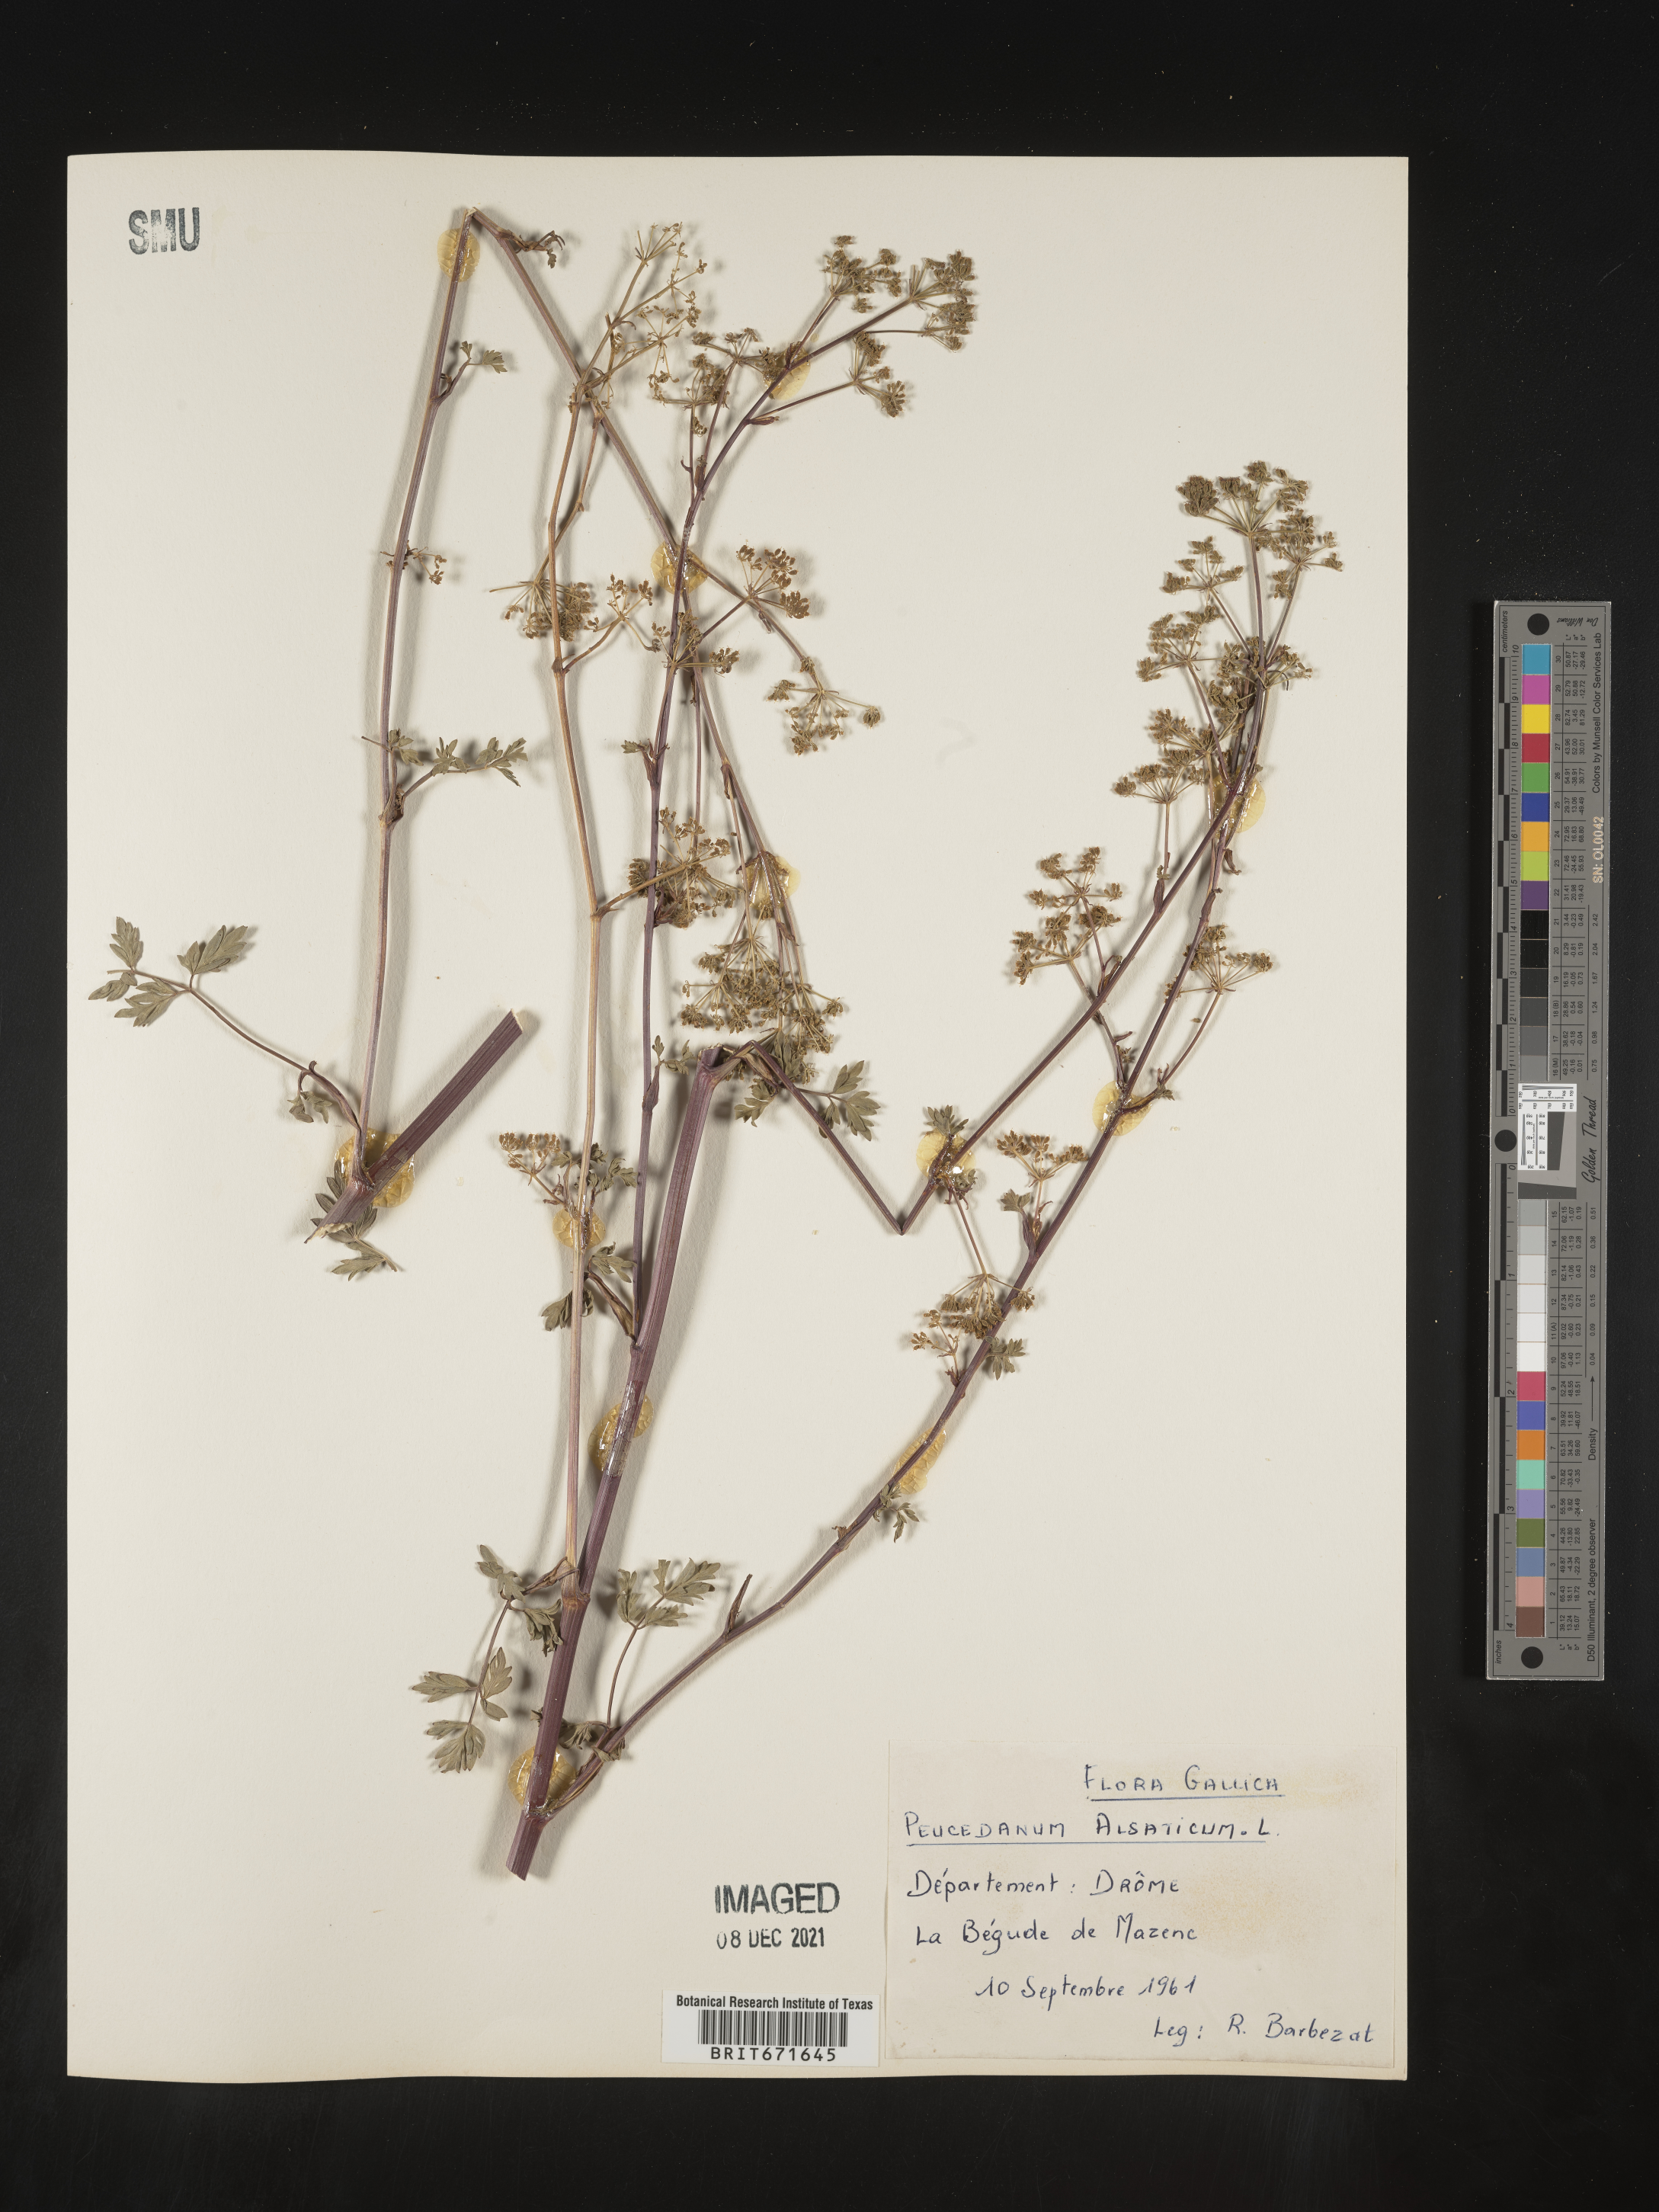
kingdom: Plantae
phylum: Tracheophyta
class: Magnoliopsida
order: Apiales
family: Apiaceae
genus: Peucedanum
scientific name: Peucedanum
